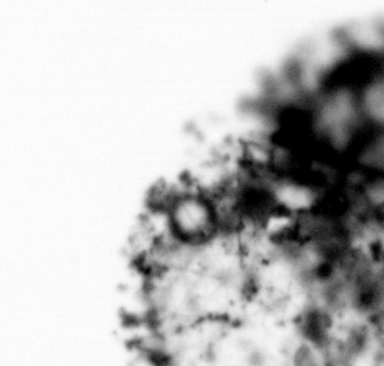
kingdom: Animalia
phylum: Chordata
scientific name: Chordata
